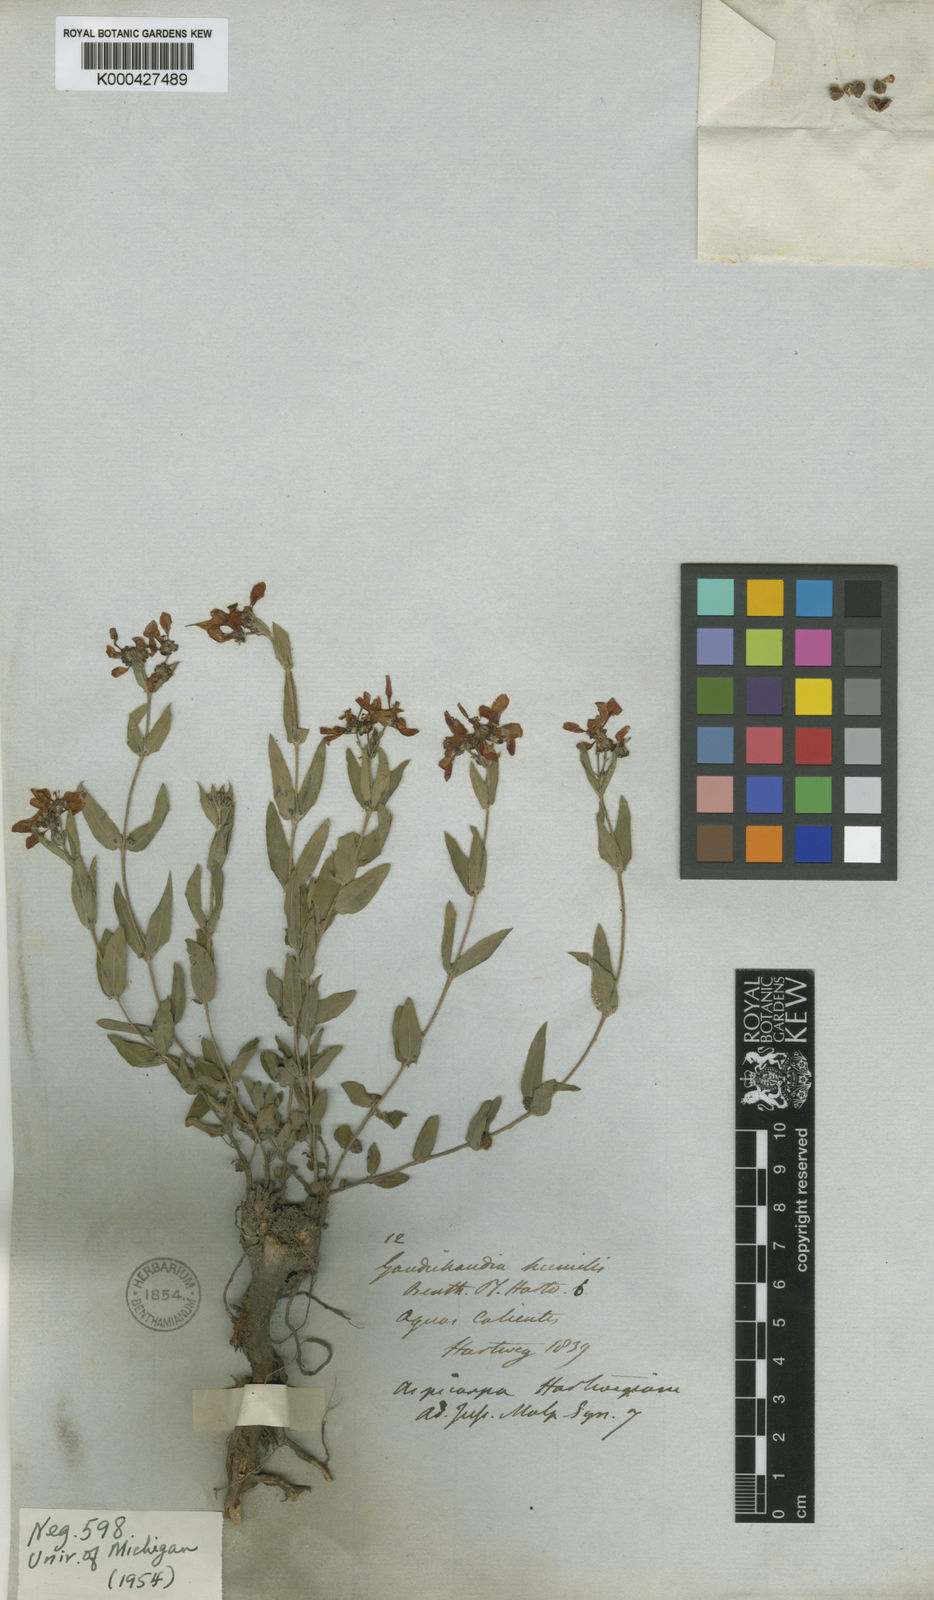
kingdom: Plantae
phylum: Tracheophyta
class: Magnoliopsida
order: Malpighiales
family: Malpighiaceae
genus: Aspicarpa
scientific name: Aspicarpa
